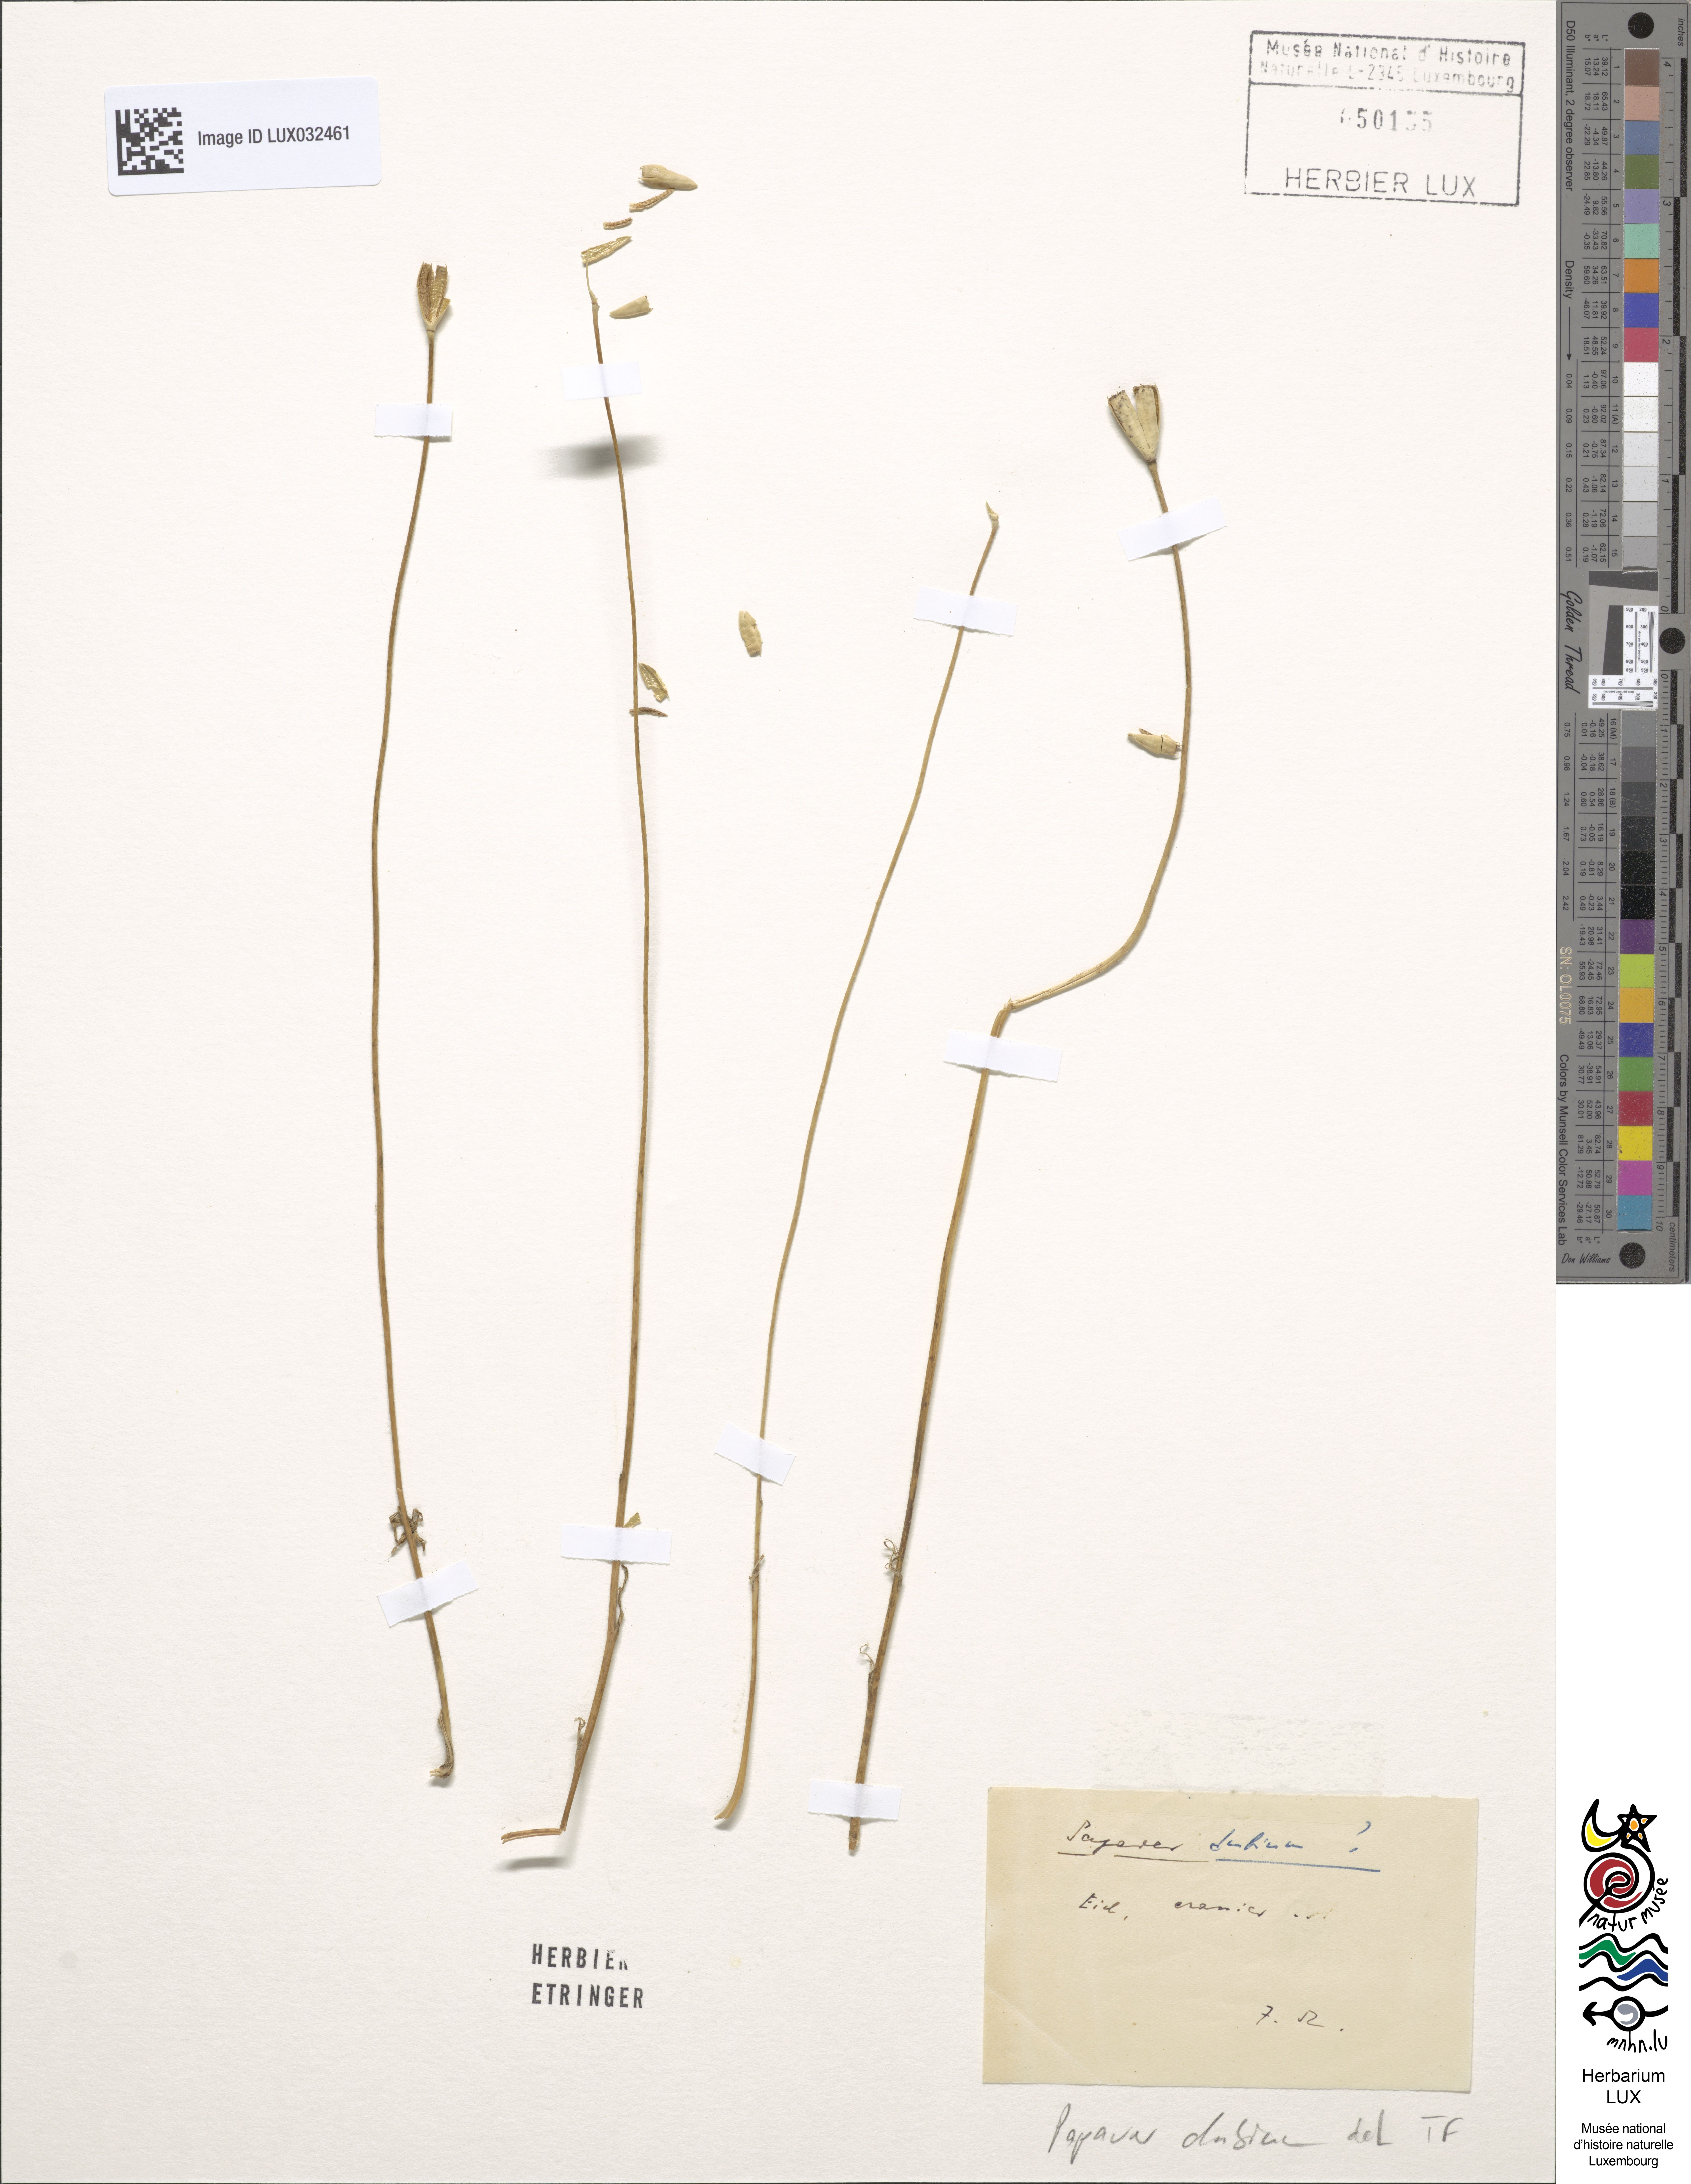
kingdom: Plantae
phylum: Tracheophyta
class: Magnoliopsida
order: Ranunculales
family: Papaveraceae
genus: Papaver
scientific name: Papaver dubium
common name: Long-headed poppy
